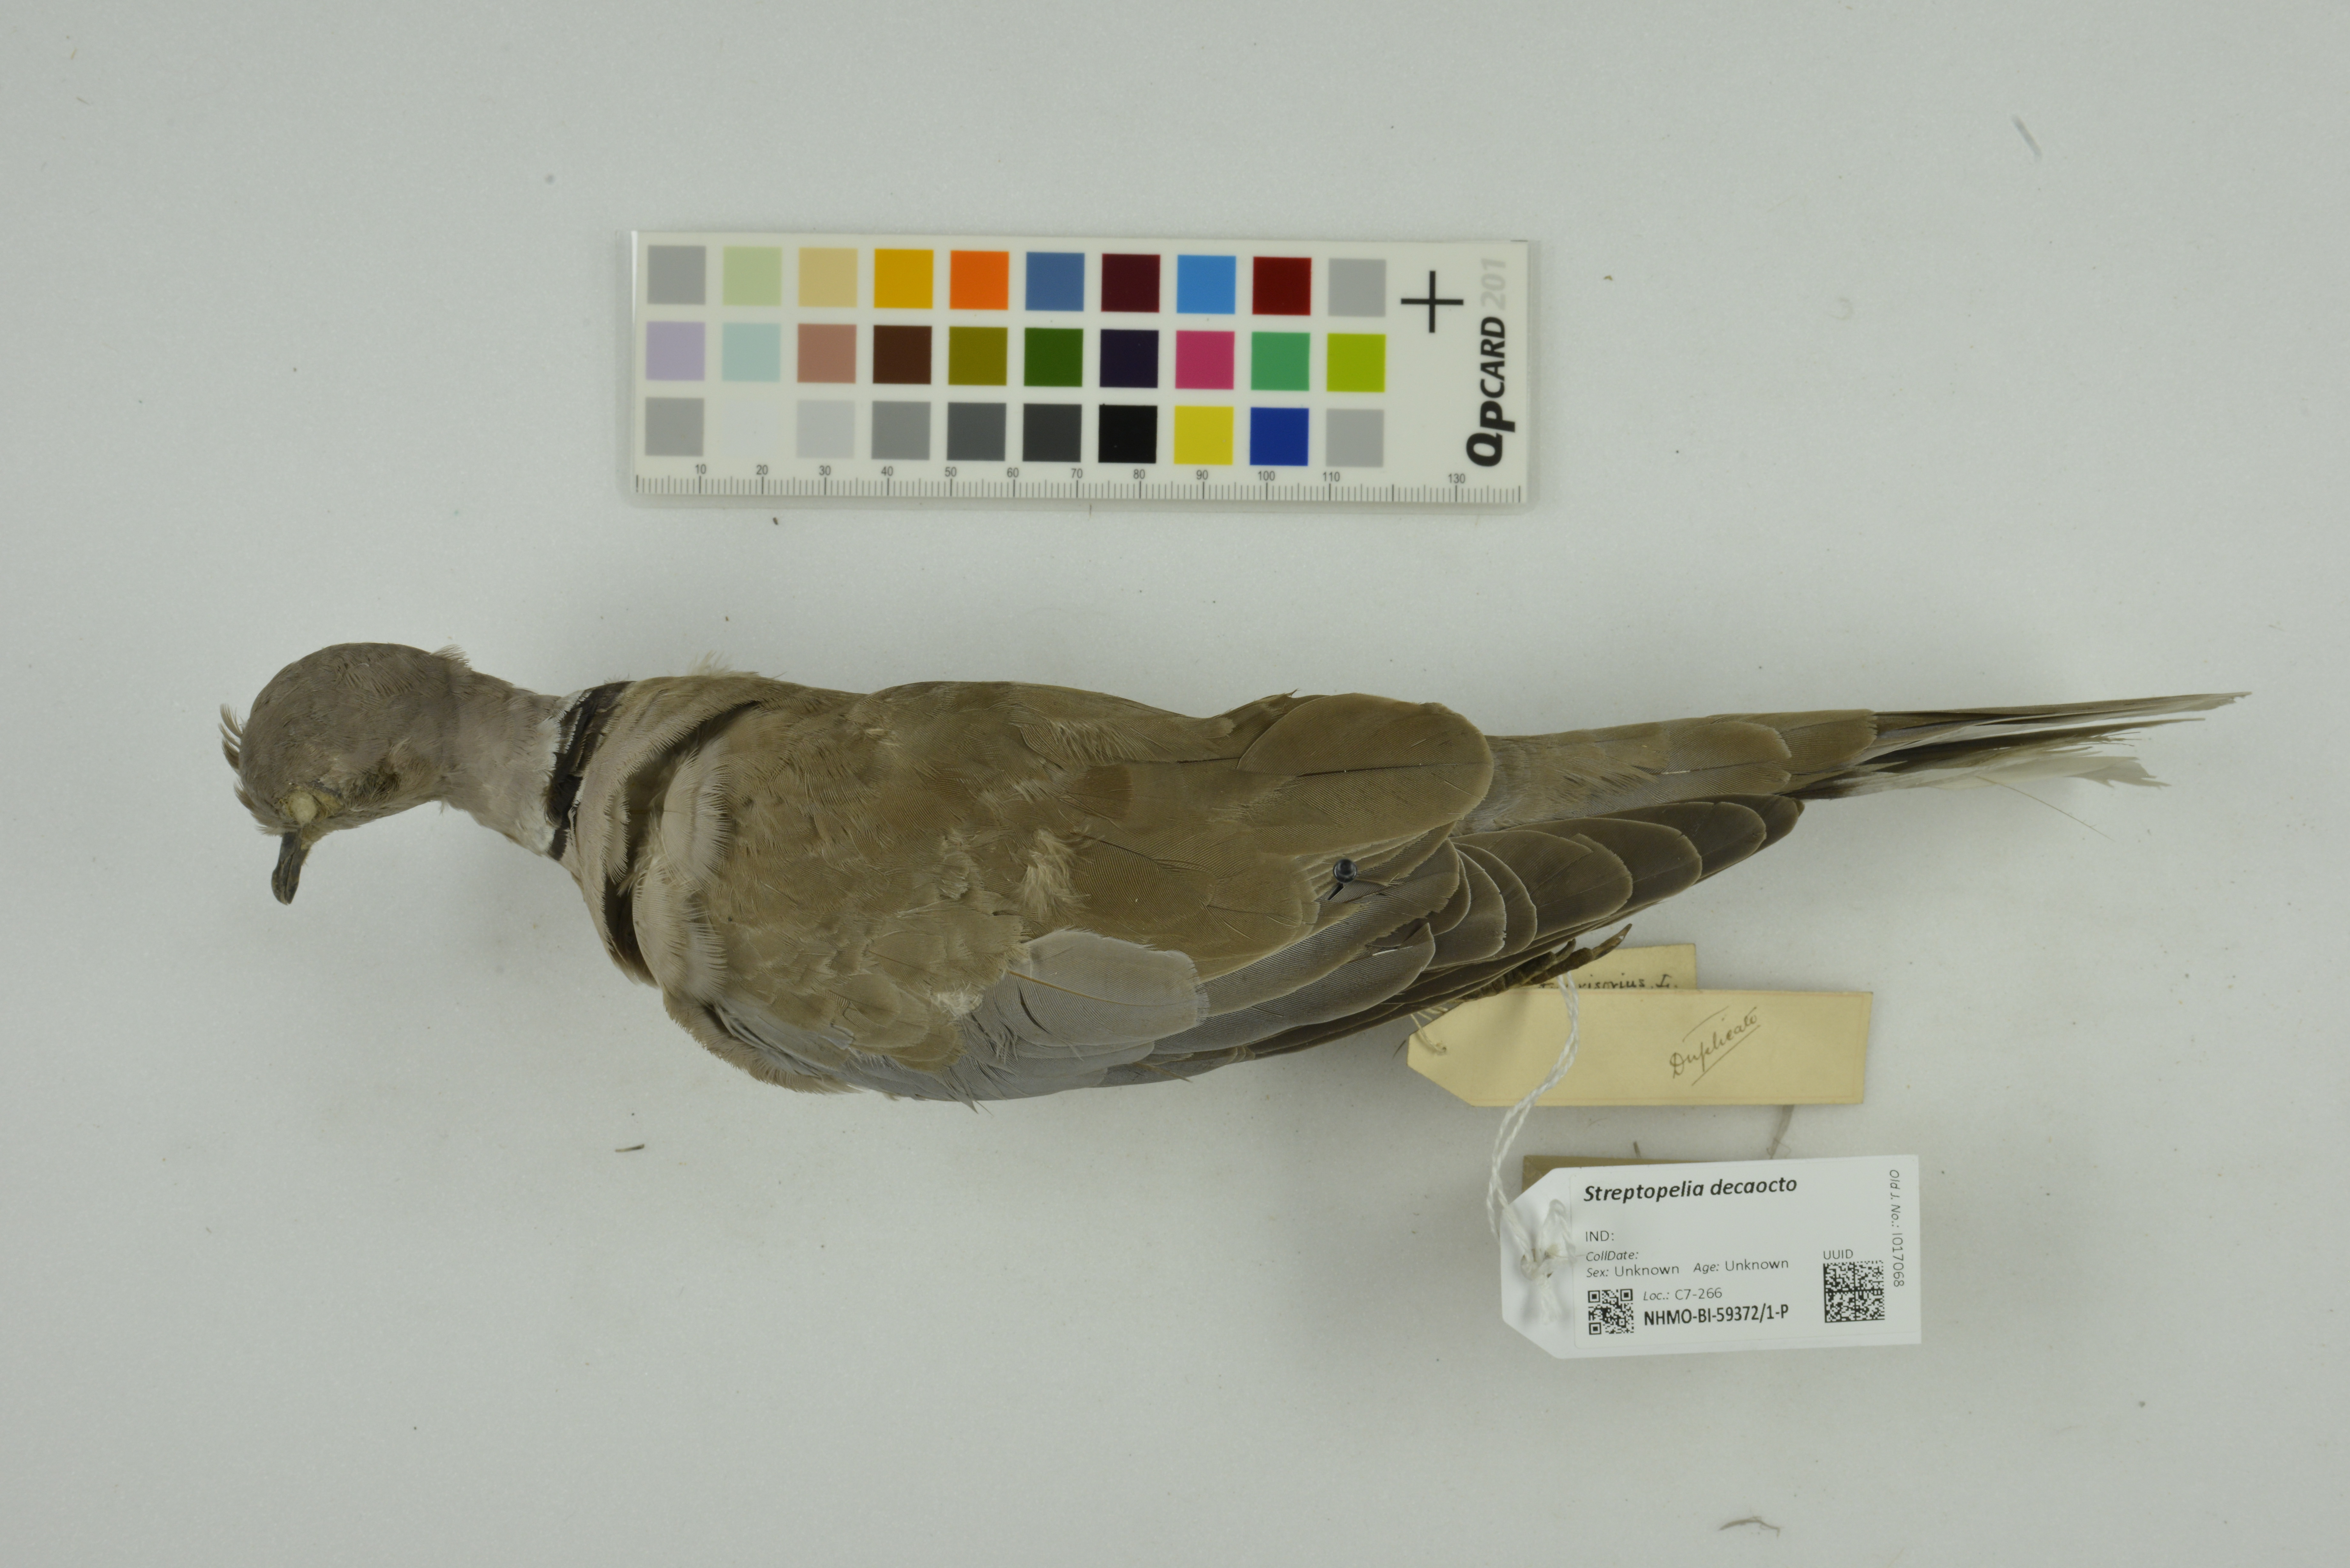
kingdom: Animalia
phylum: Chordata
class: Aves
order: Columbiformes
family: Columbidae
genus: Streptopelia
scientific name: Streptopelia decaocto
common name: Eurasian collared dove
